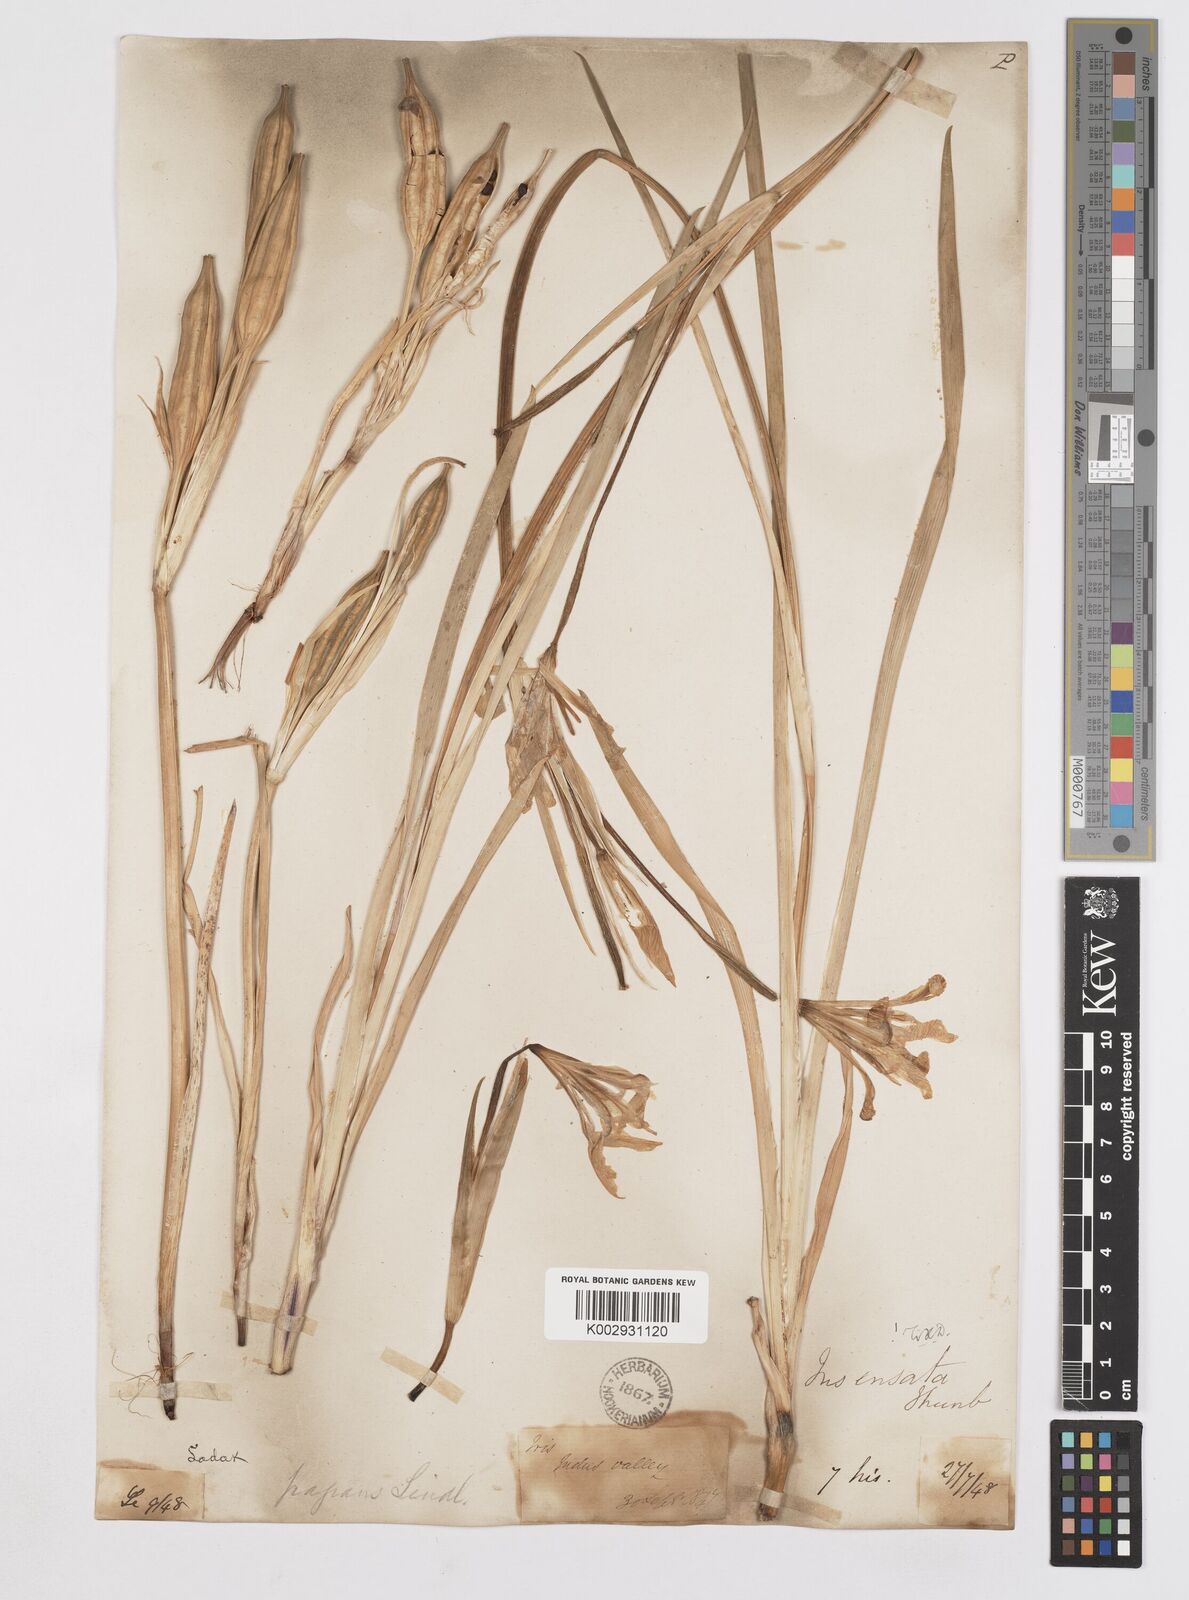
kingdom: Plantae
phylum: Tracheophyta
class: Liliopsida
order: Asparagales
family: Iridaceae
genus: Iris
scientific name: Iris ensata
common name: Beaked iris
